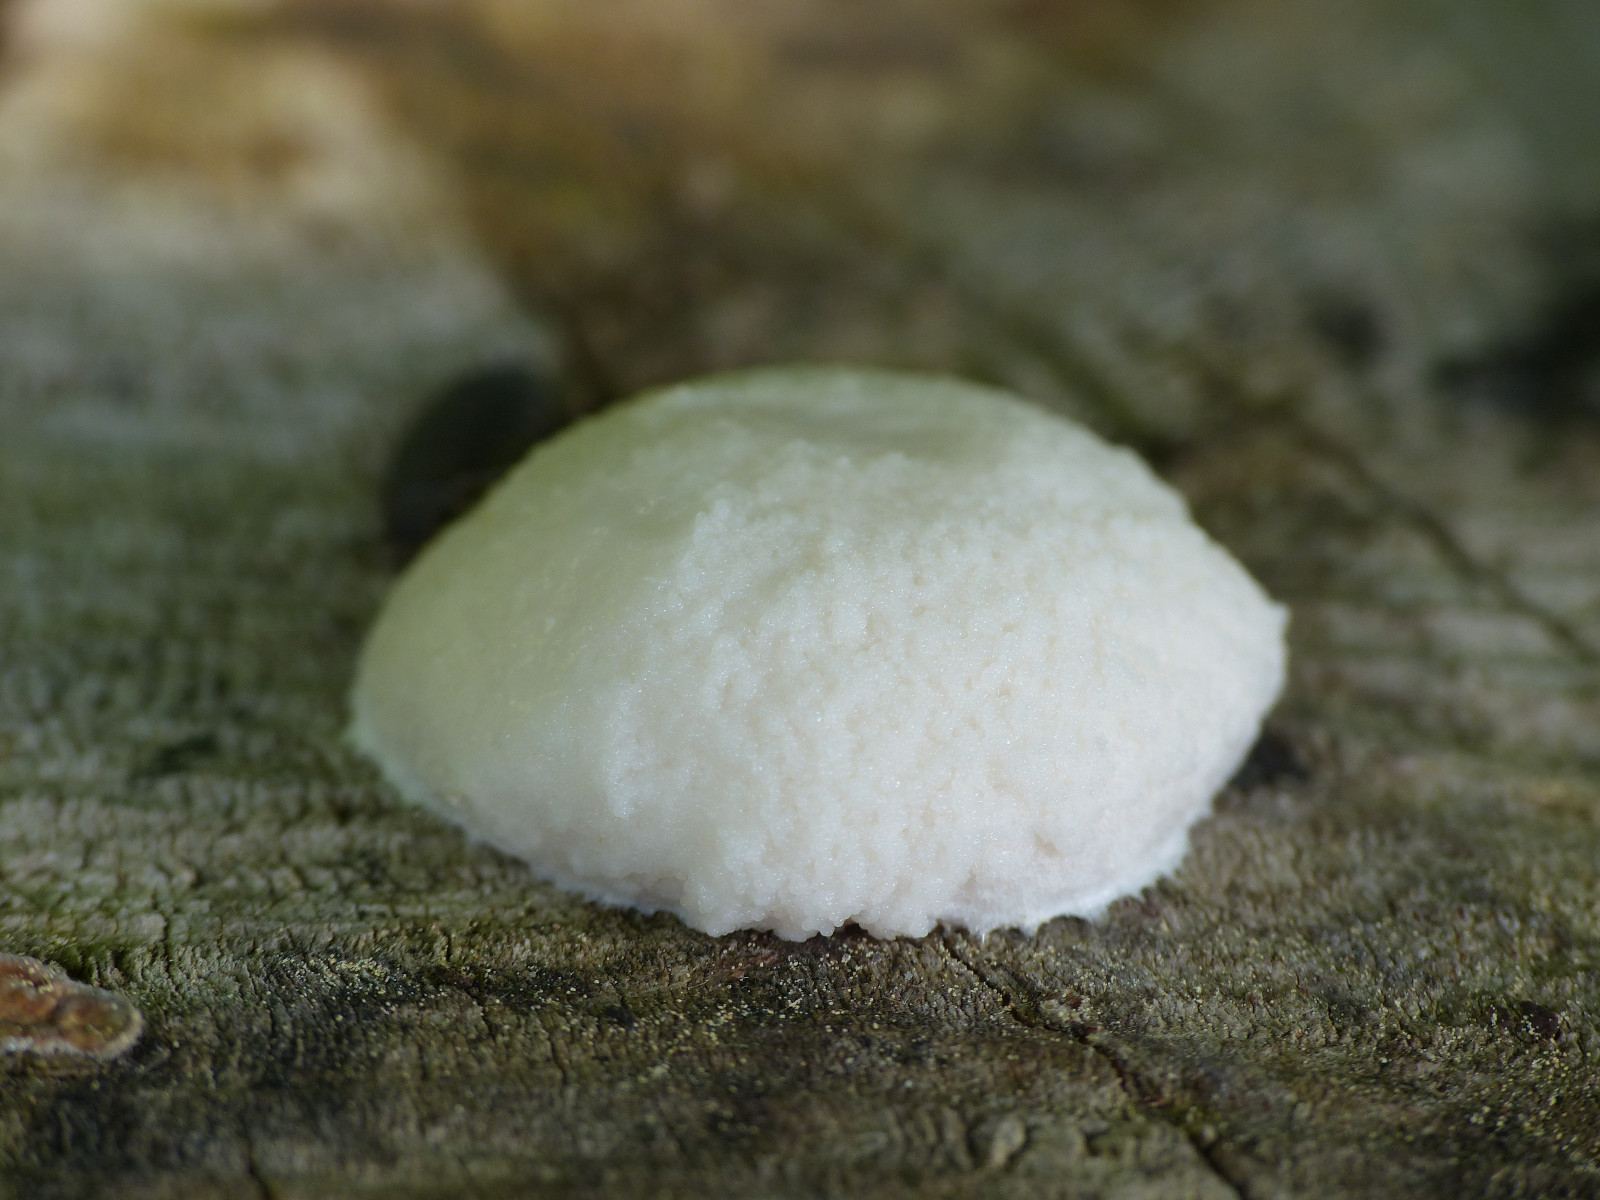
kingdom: Protozoa
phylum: Mycetozoa
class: Myxomycetes
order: Cribrariales
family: Tubiferaceae
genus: Reticularia
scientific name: Reticularia
